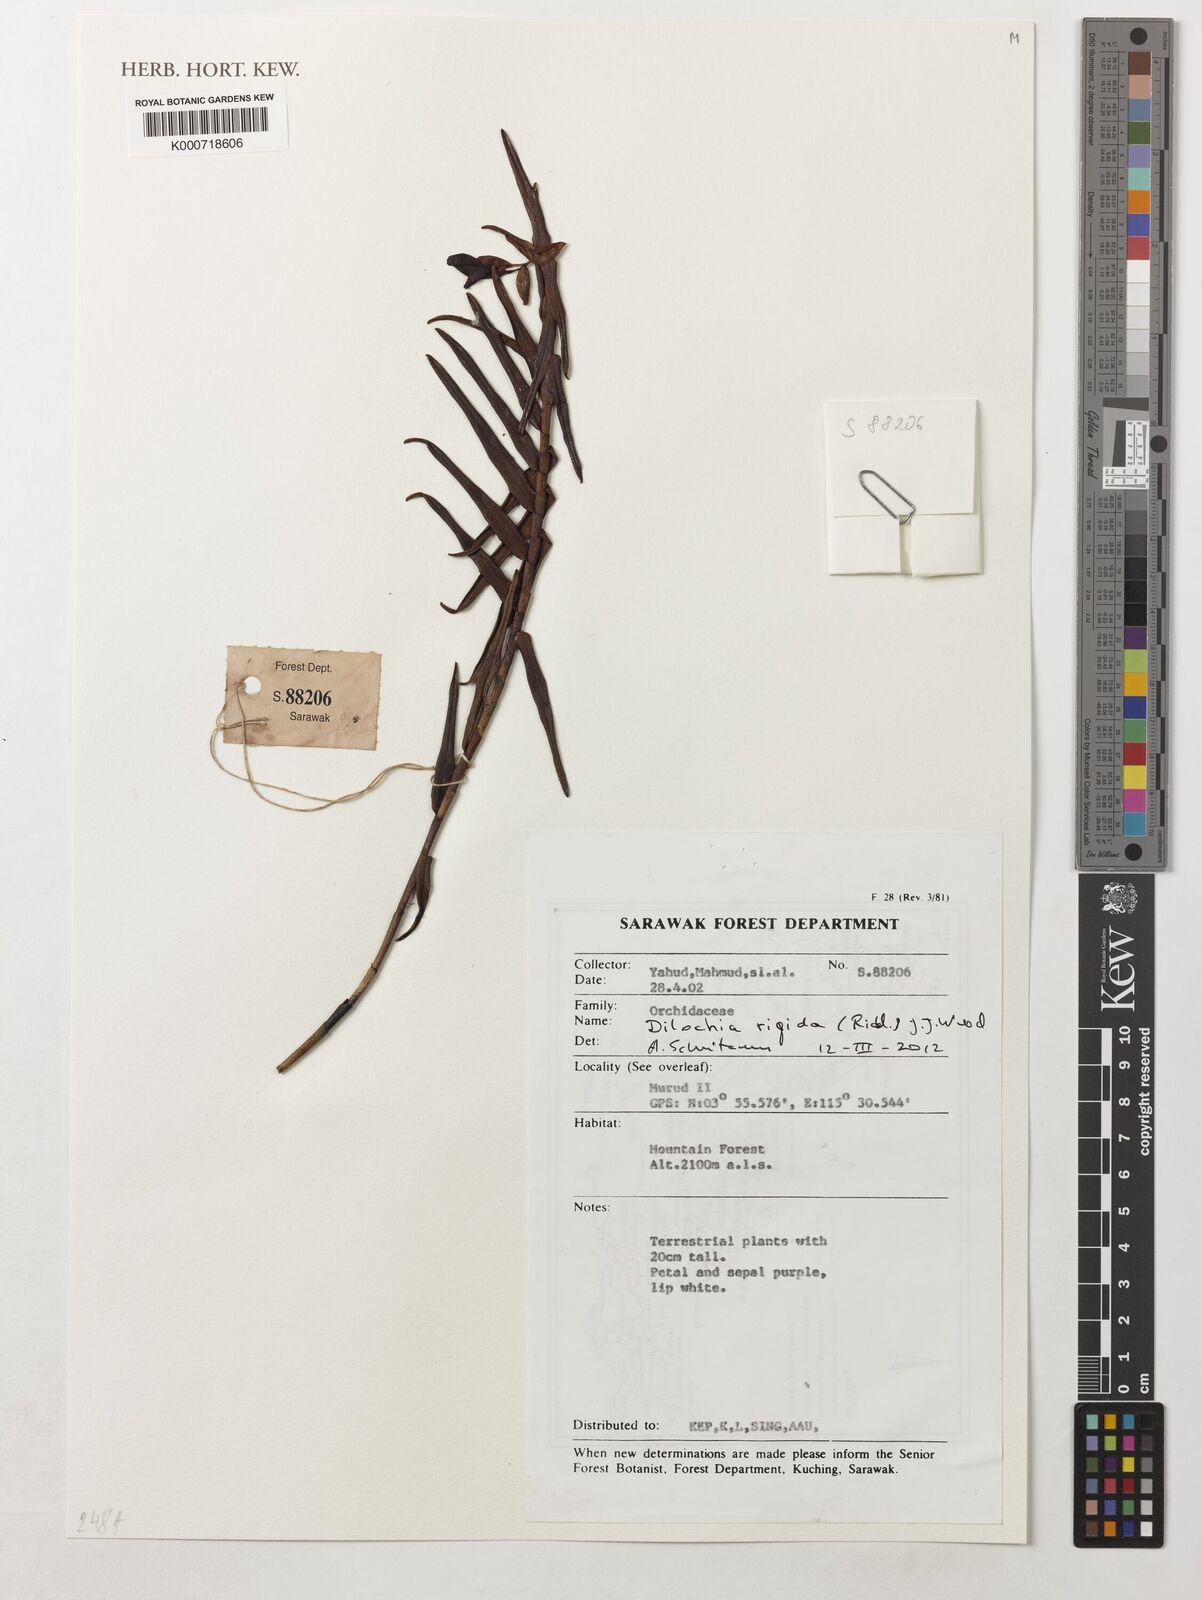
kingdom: Plantae
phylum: Tracheophyta
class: Liliopsida
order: Asparagales
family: Orchidaceae
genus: Dilochia
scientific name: Dilochia rigida
